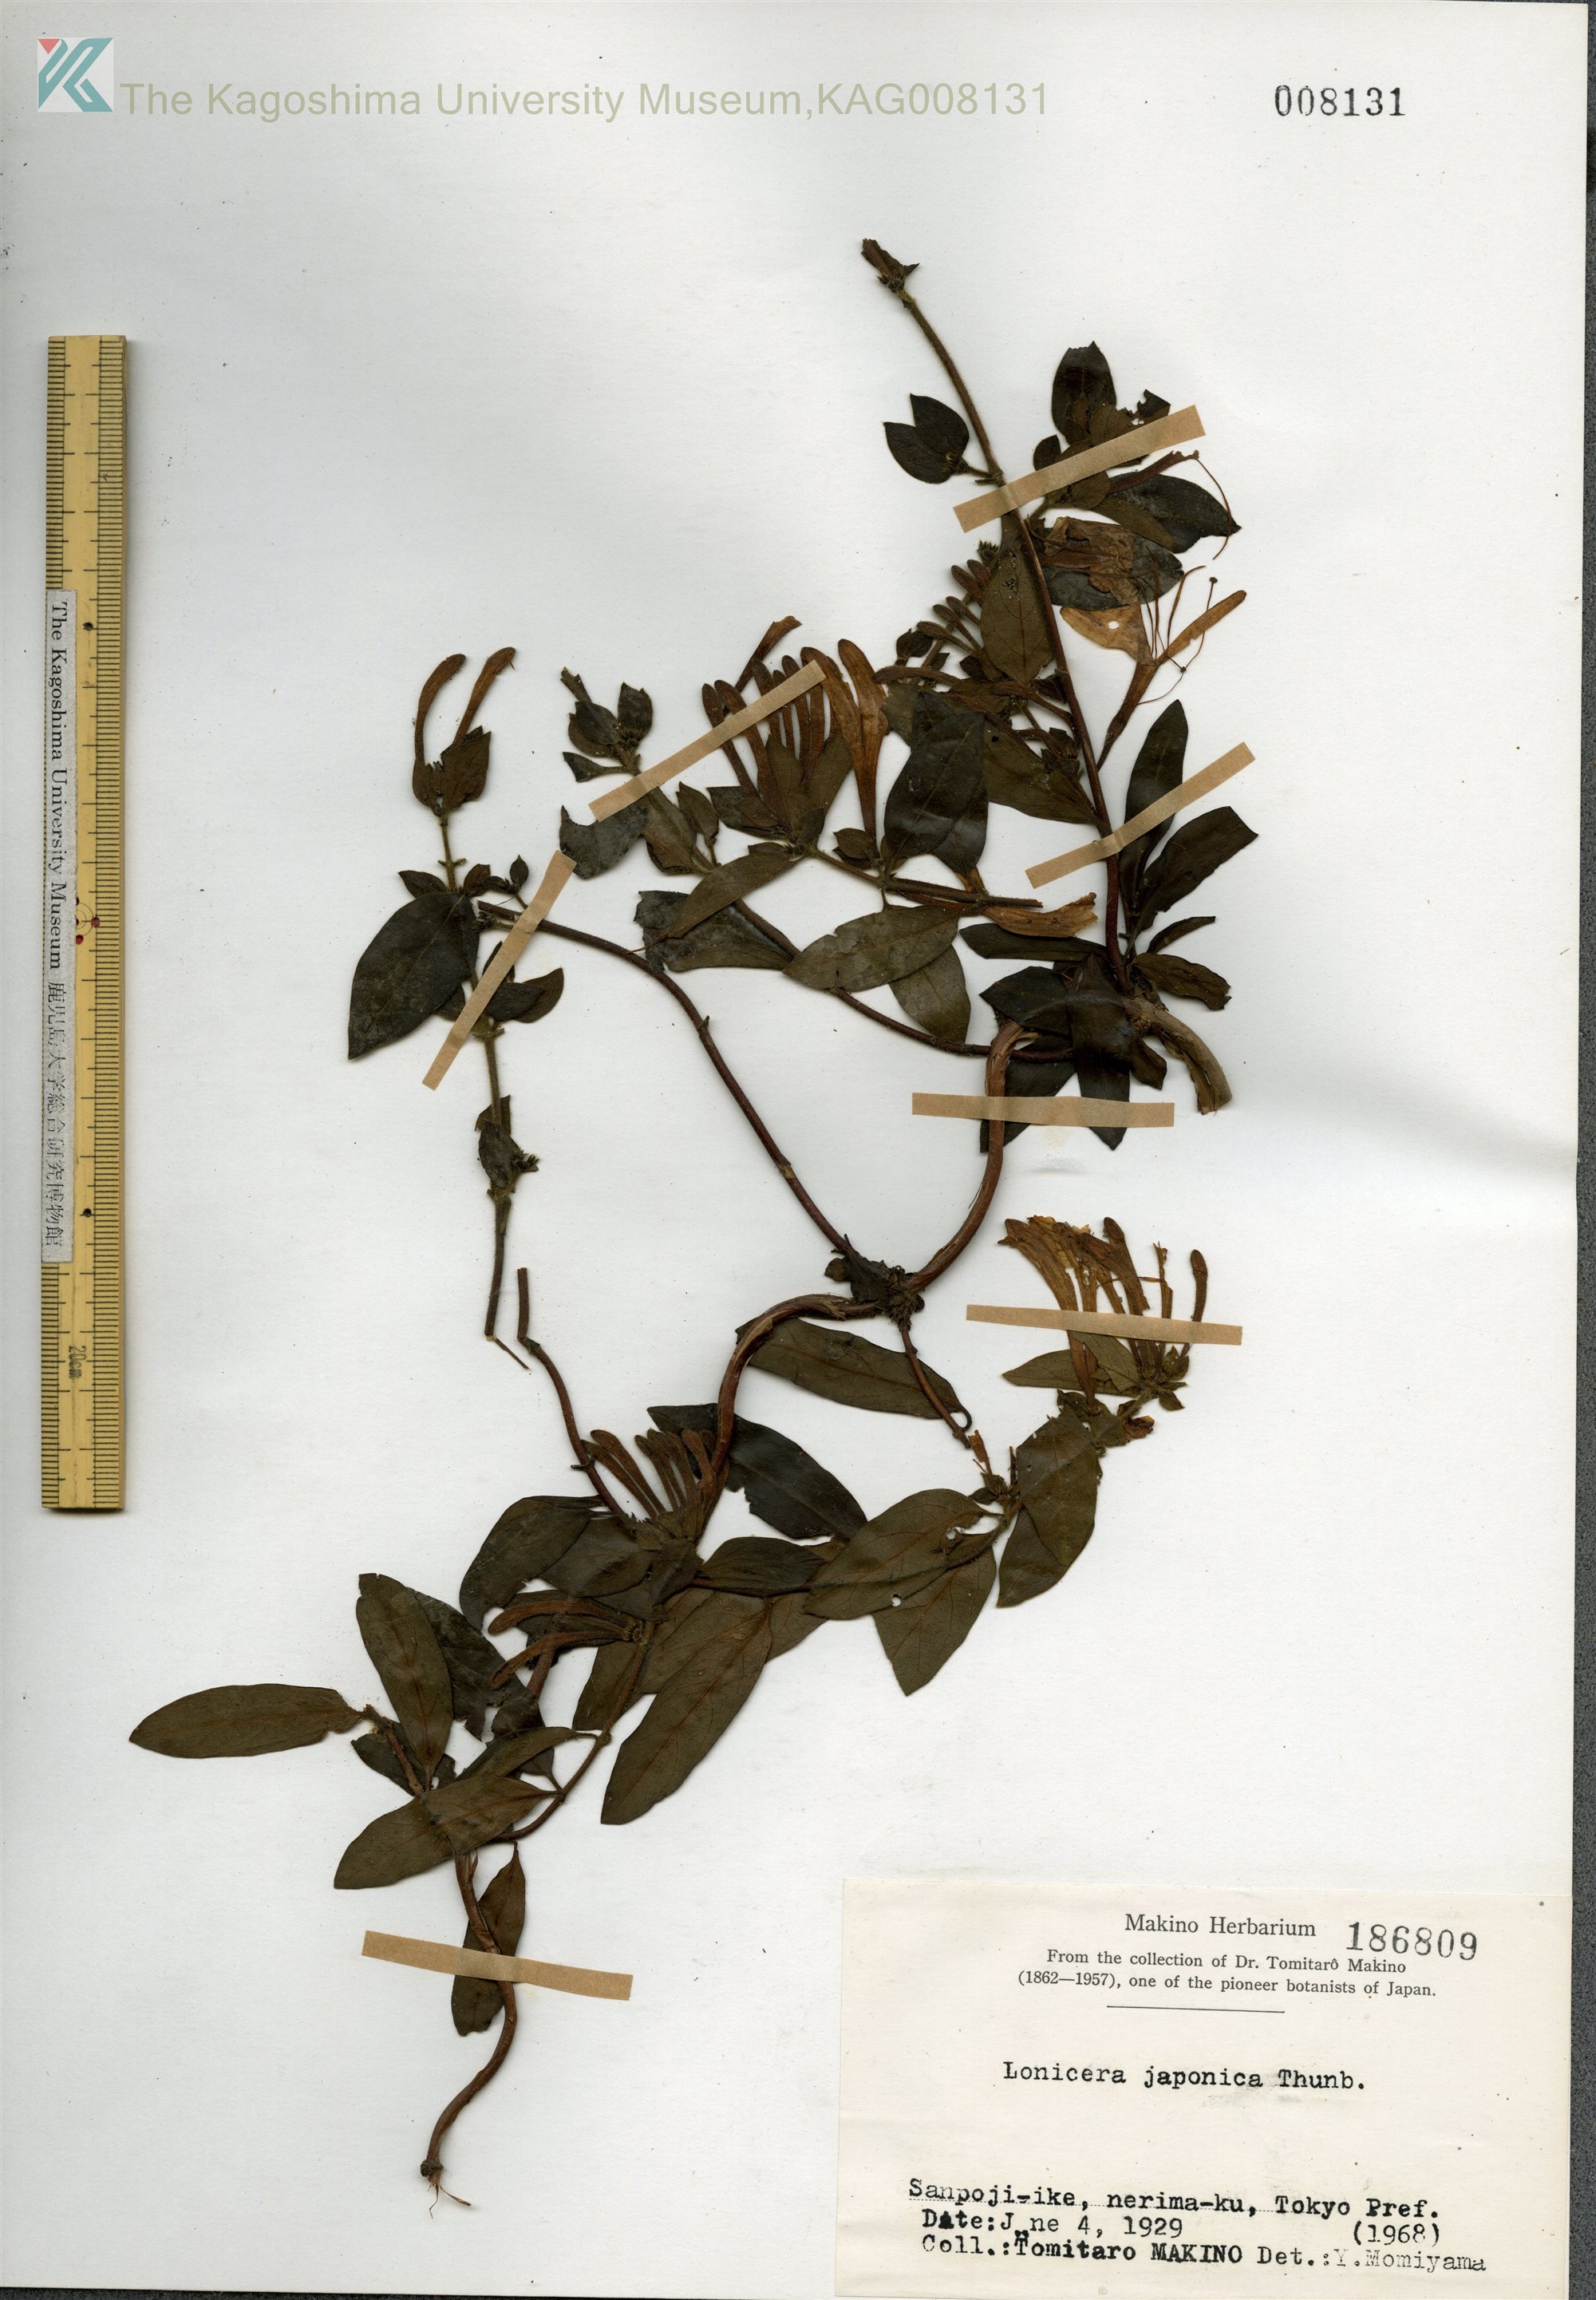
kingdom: Plantae
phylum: Tracheophyta
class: Magnoliopsida
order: Dipsacales
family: Caprifoliaceae
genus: Lonicera
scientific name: Lonicera japonica
